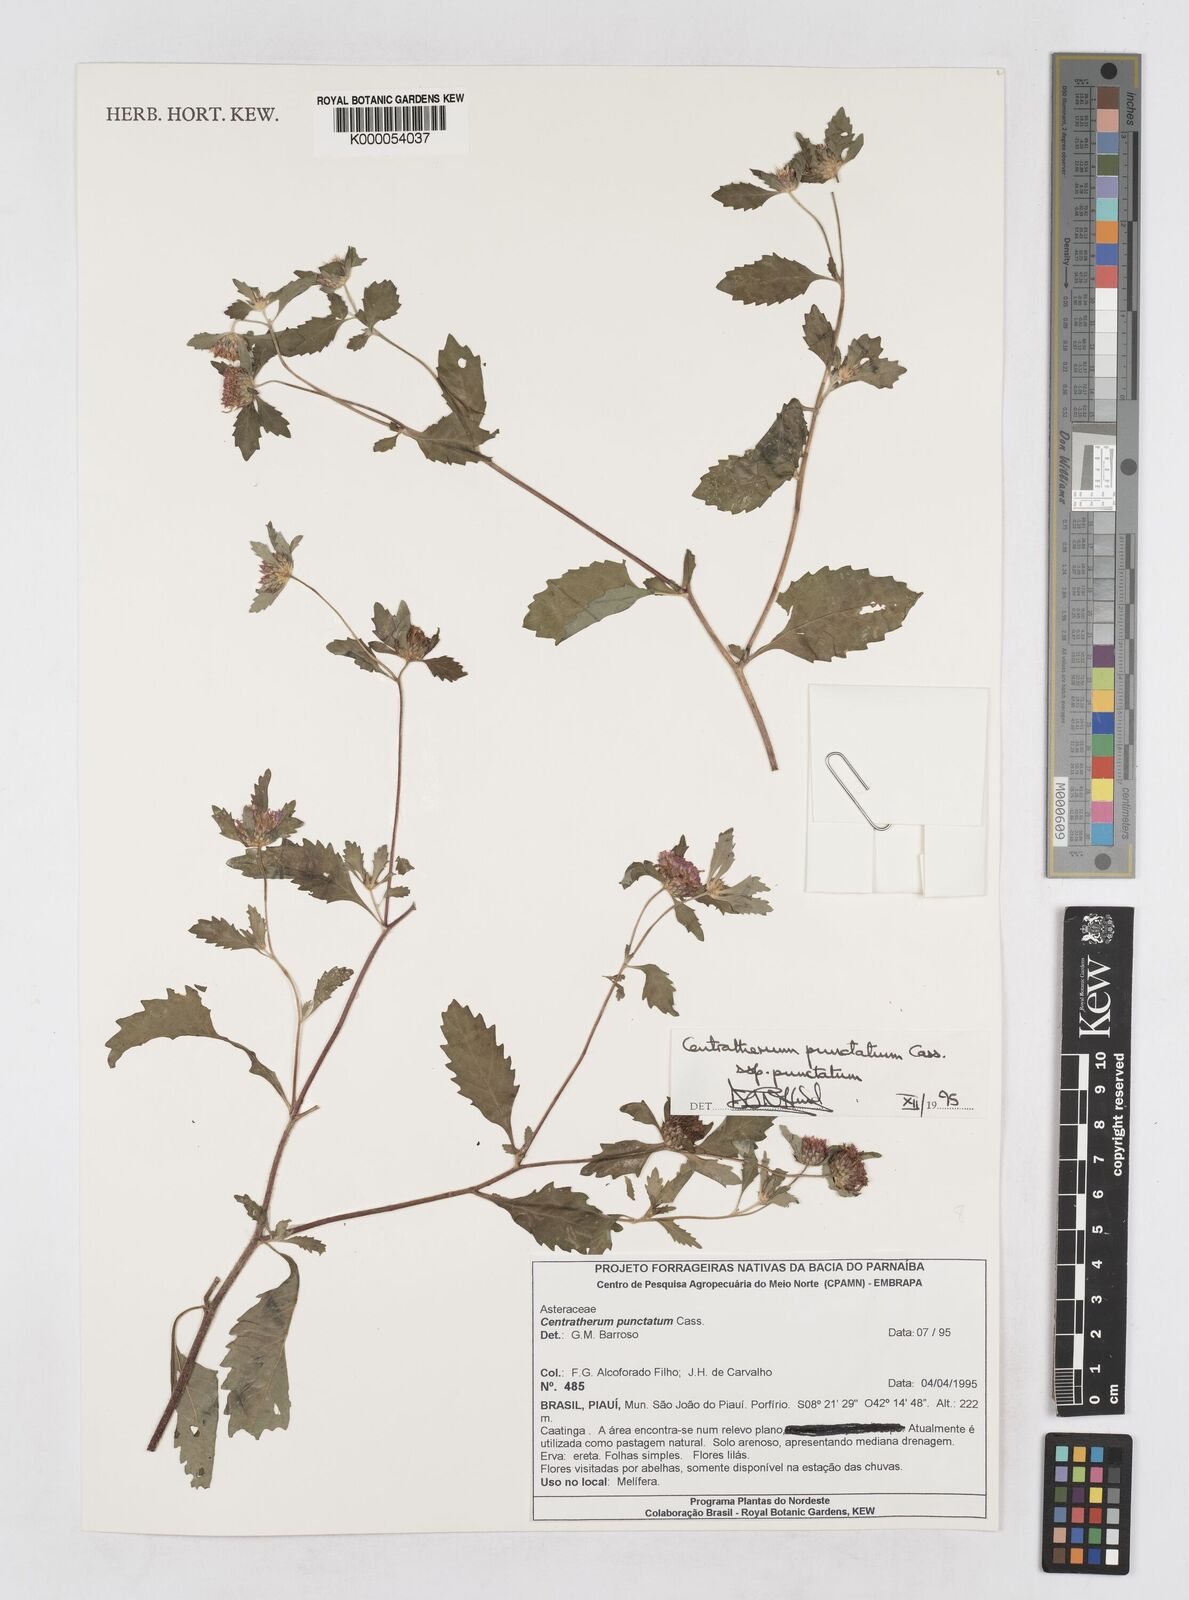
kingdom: Plantae
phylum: Tracheophyta
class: Magnoliopsida
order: Asterales
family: Asteraceae
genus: Centratherum
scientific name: Centratherum punctatum
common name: Larkdaisy
